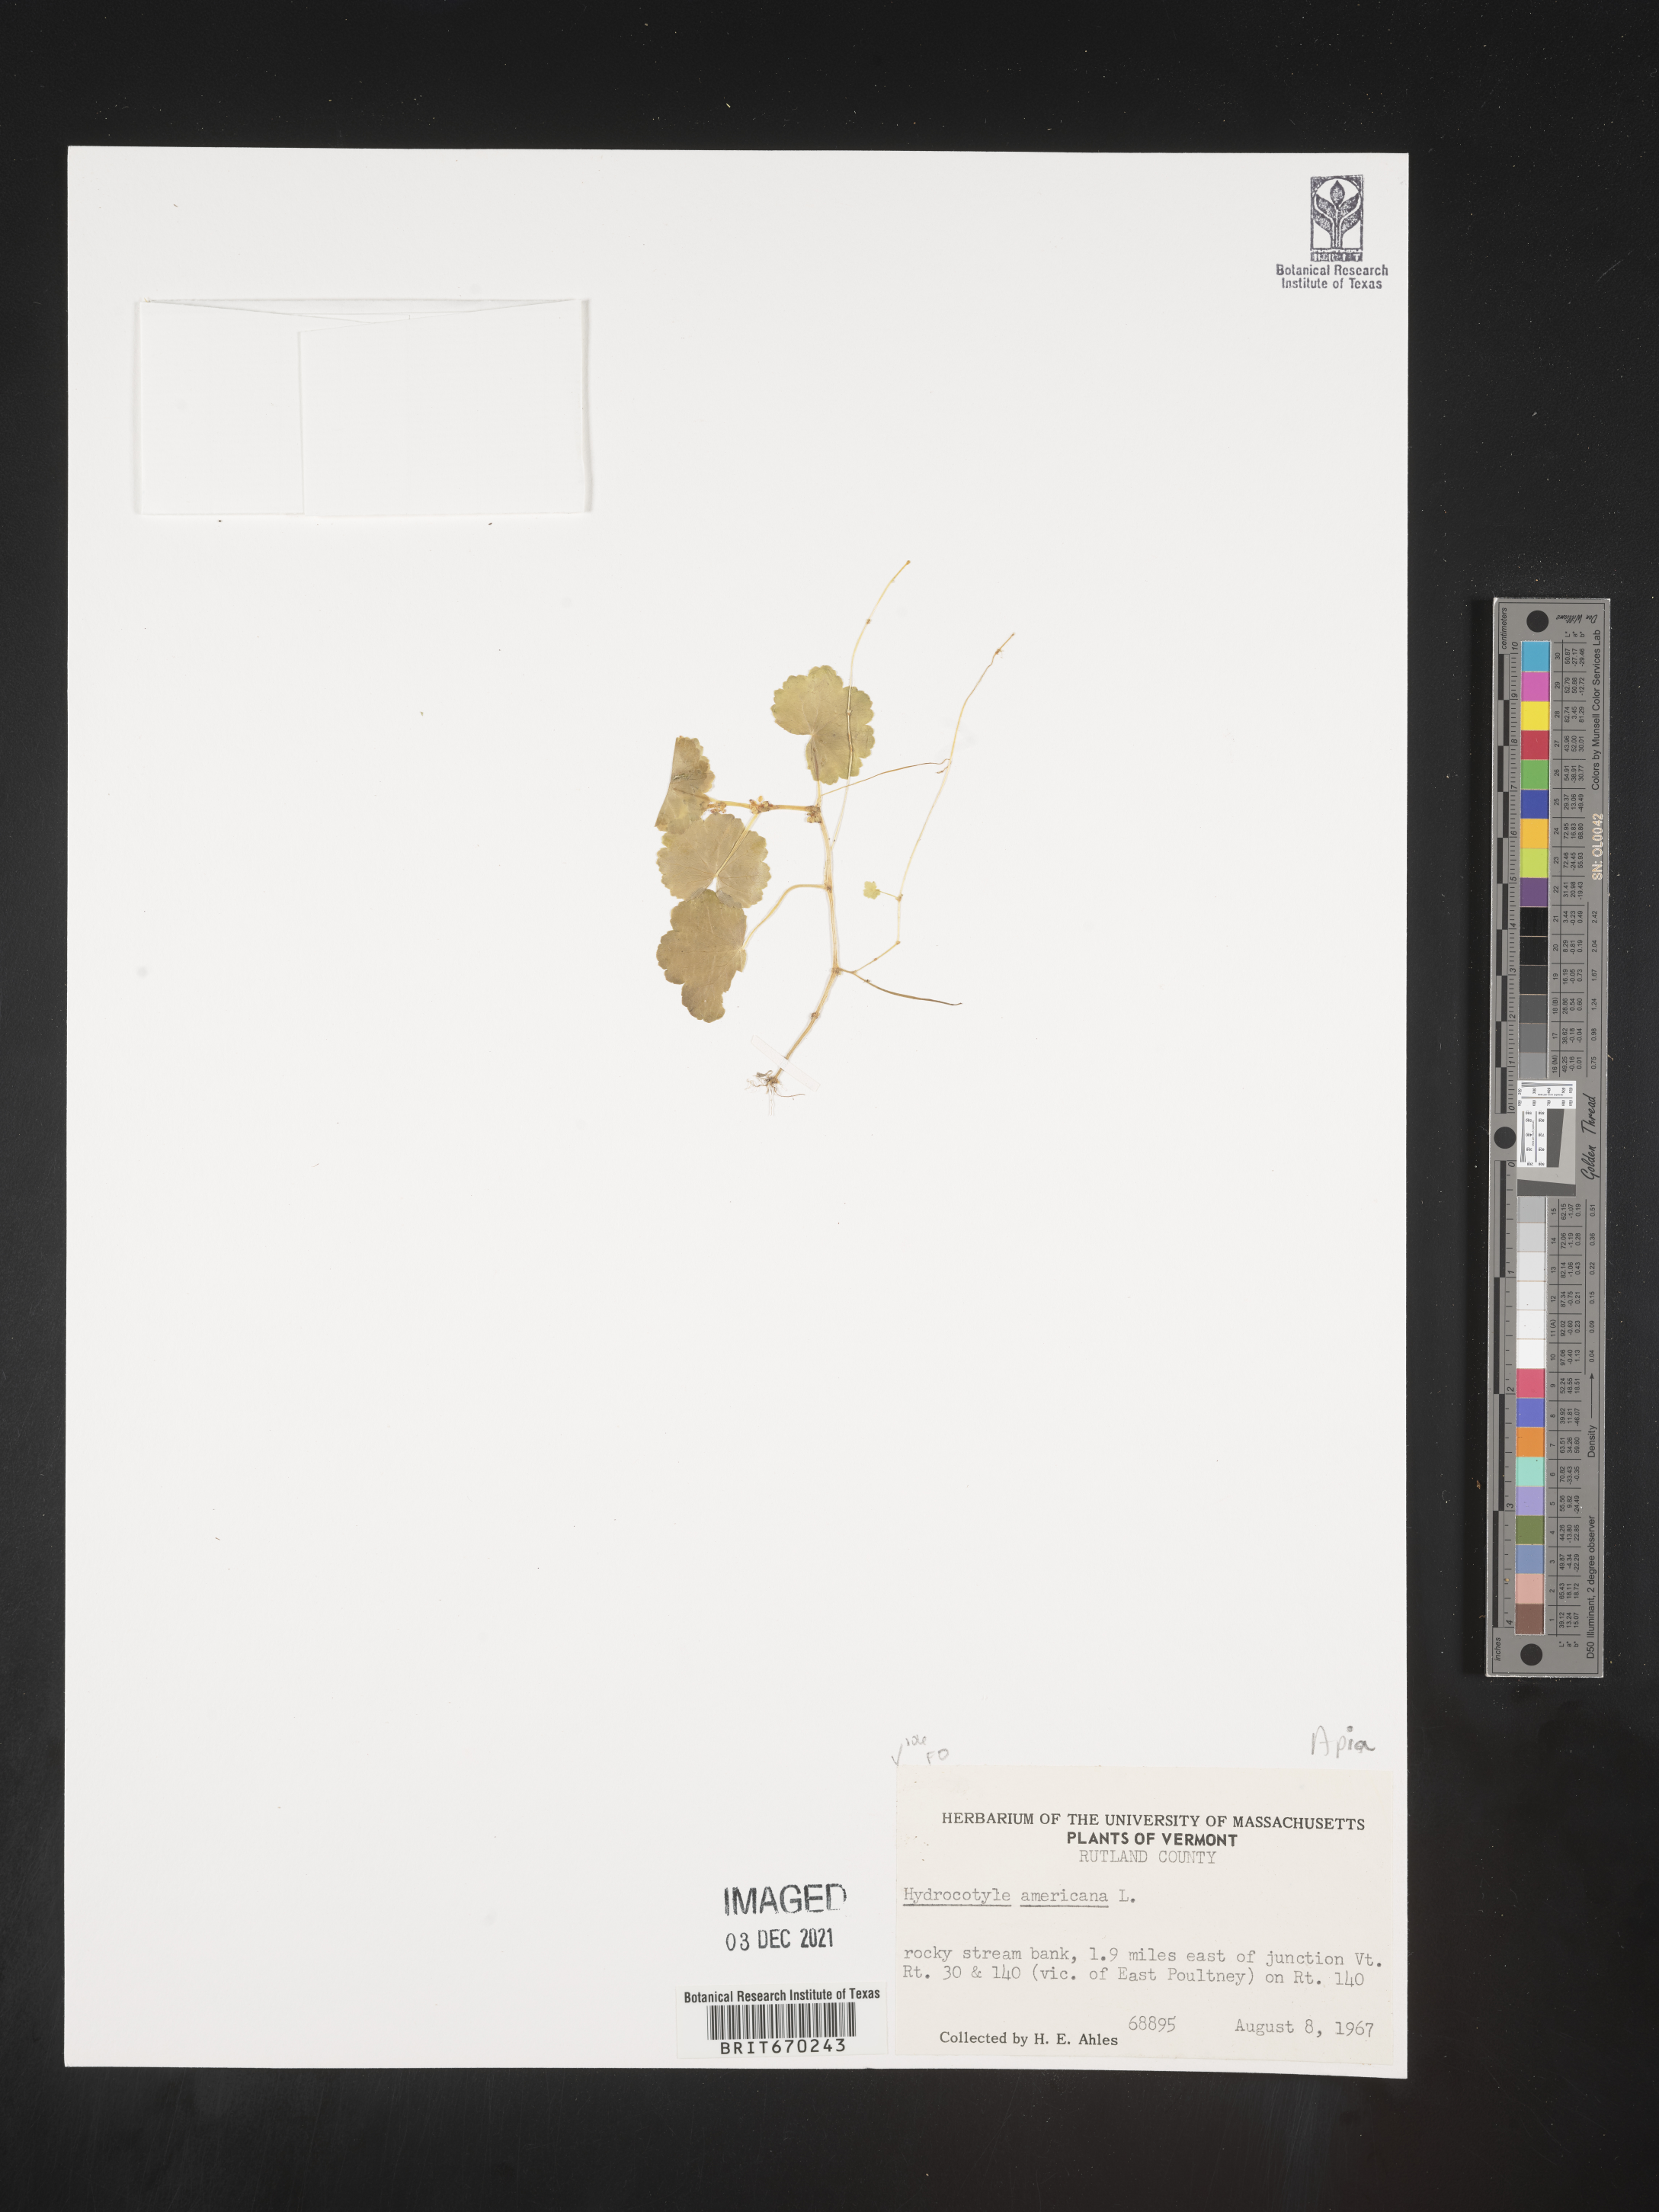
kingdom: Plantae
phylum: Tracheophyta
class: Magnoliopsida
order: Apiales
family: Araliaceae
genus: Hydrocotyle
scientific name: Hydrocotyle
